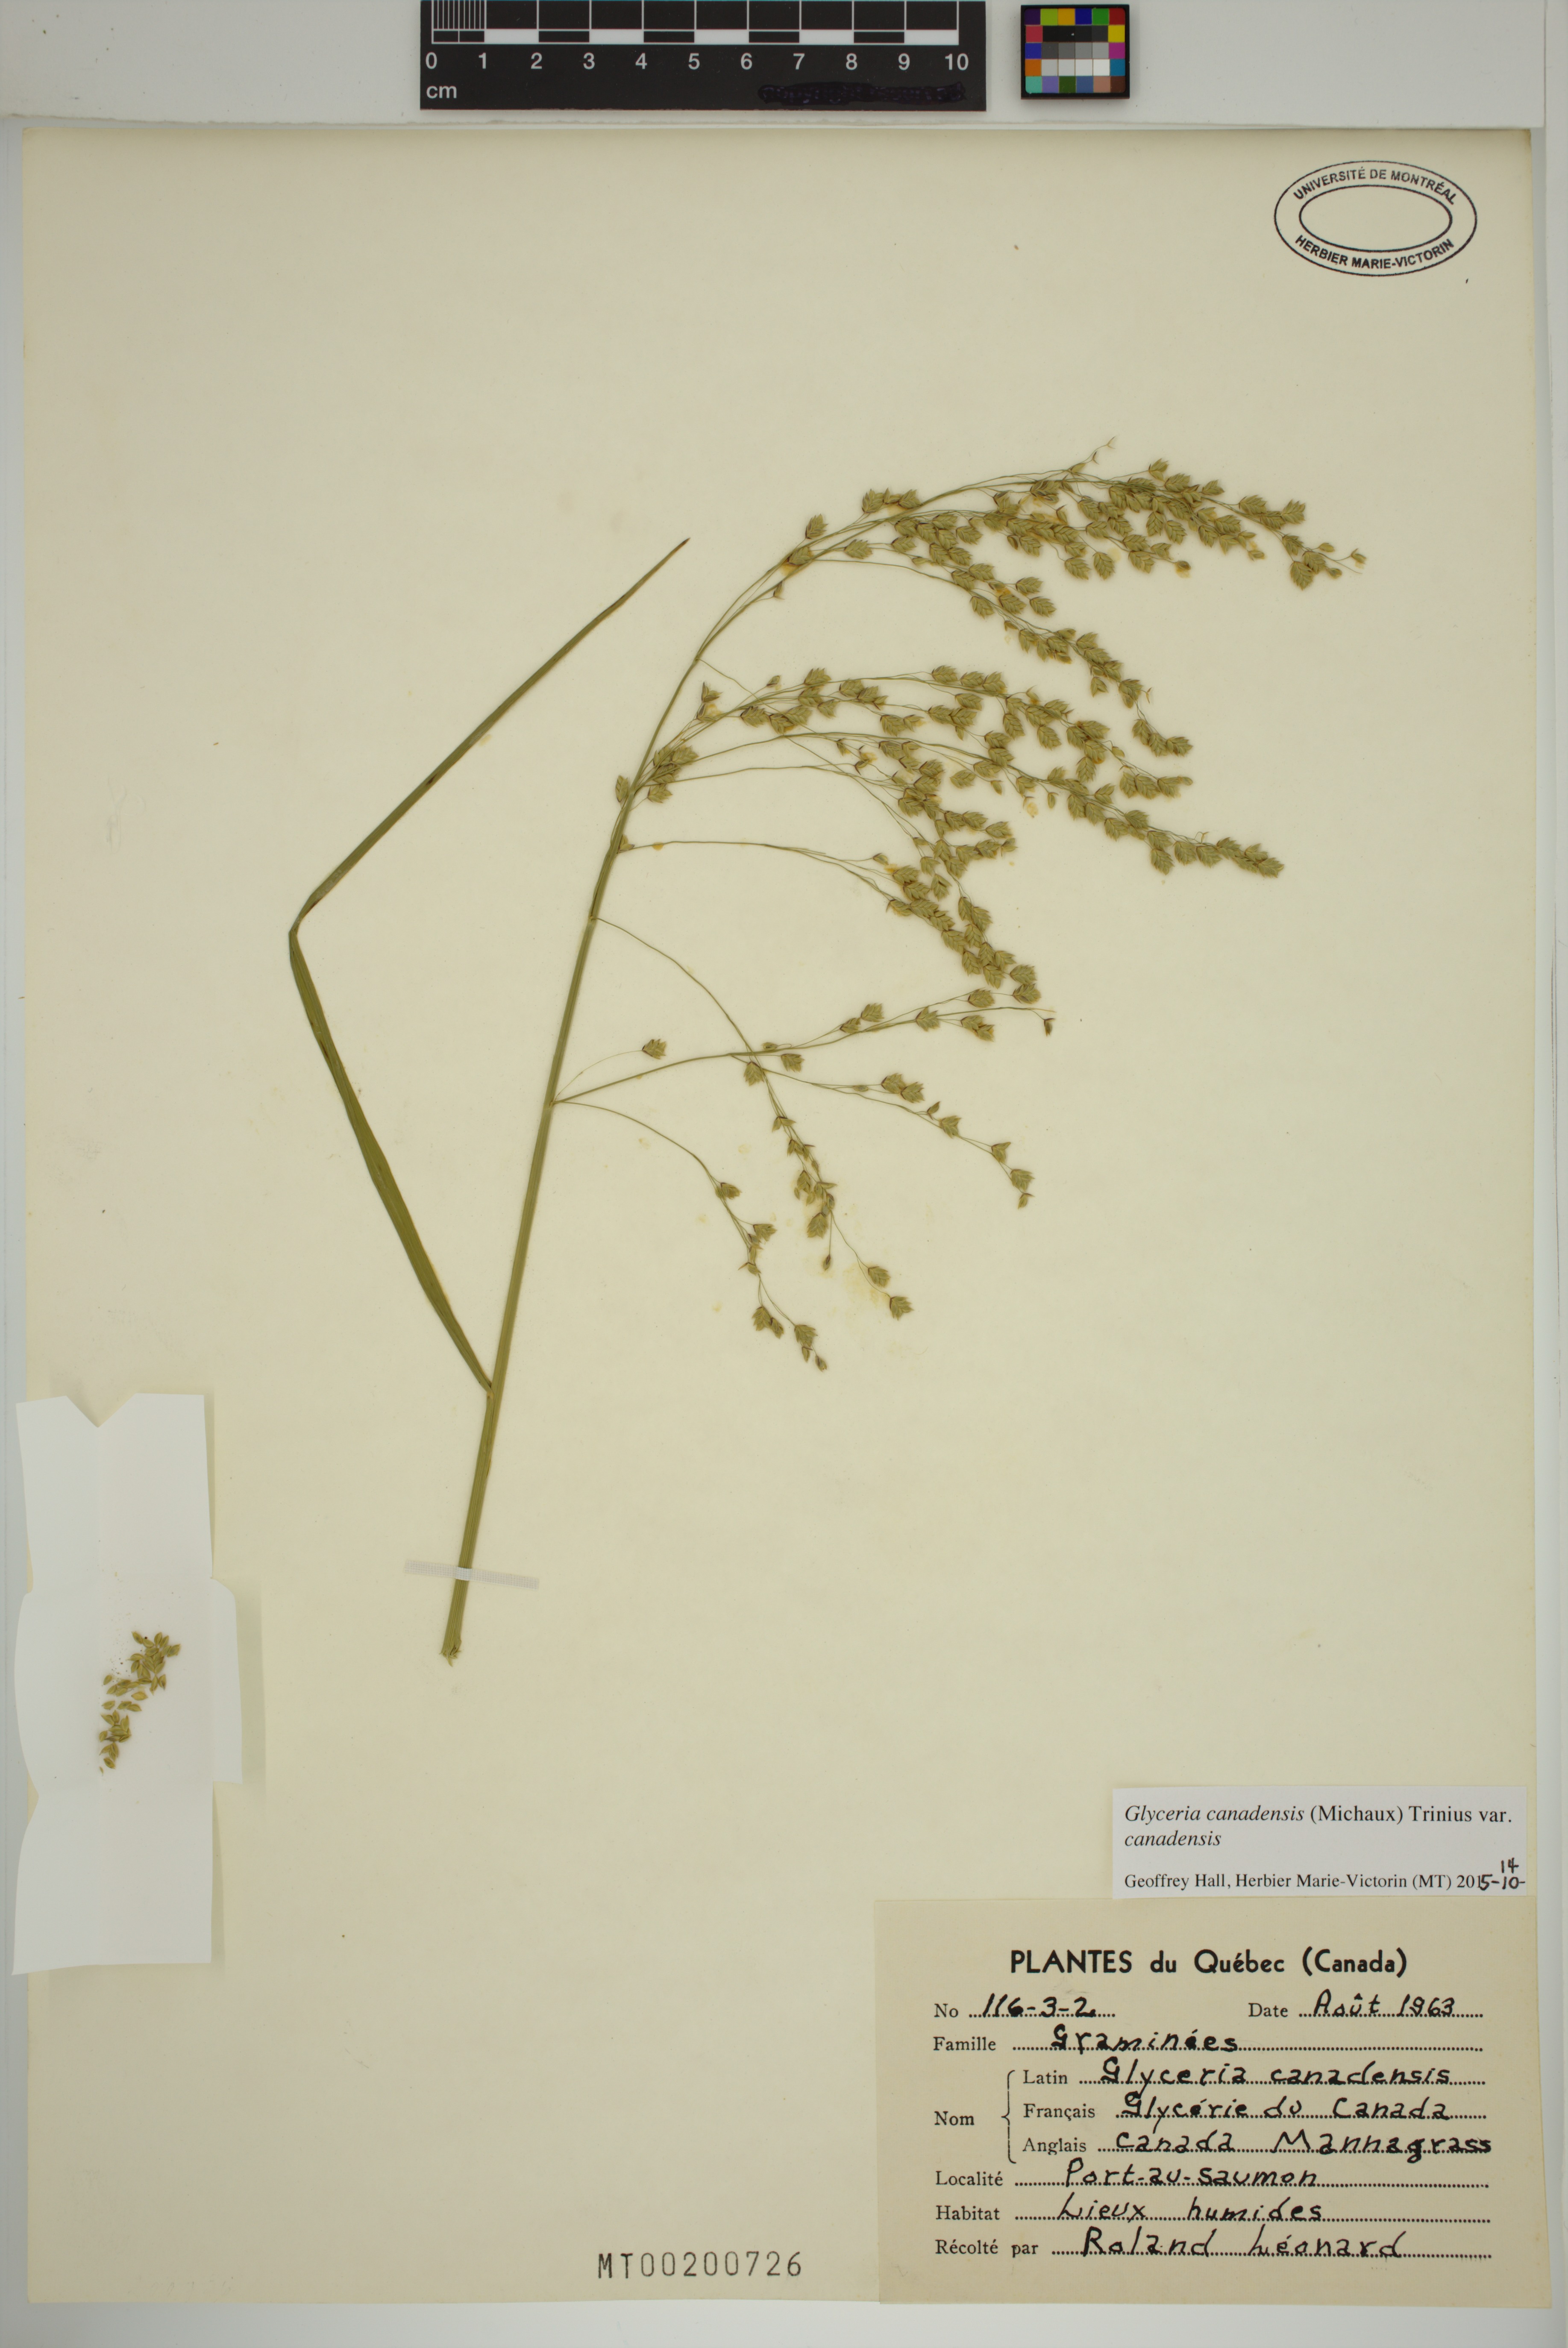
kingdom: Plantae
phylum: Tracheophyta
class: Liliopsida
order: Poales
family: Poaceae
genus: Glyceria
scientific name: Glyceria canadensis
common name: Canada mannagrass
